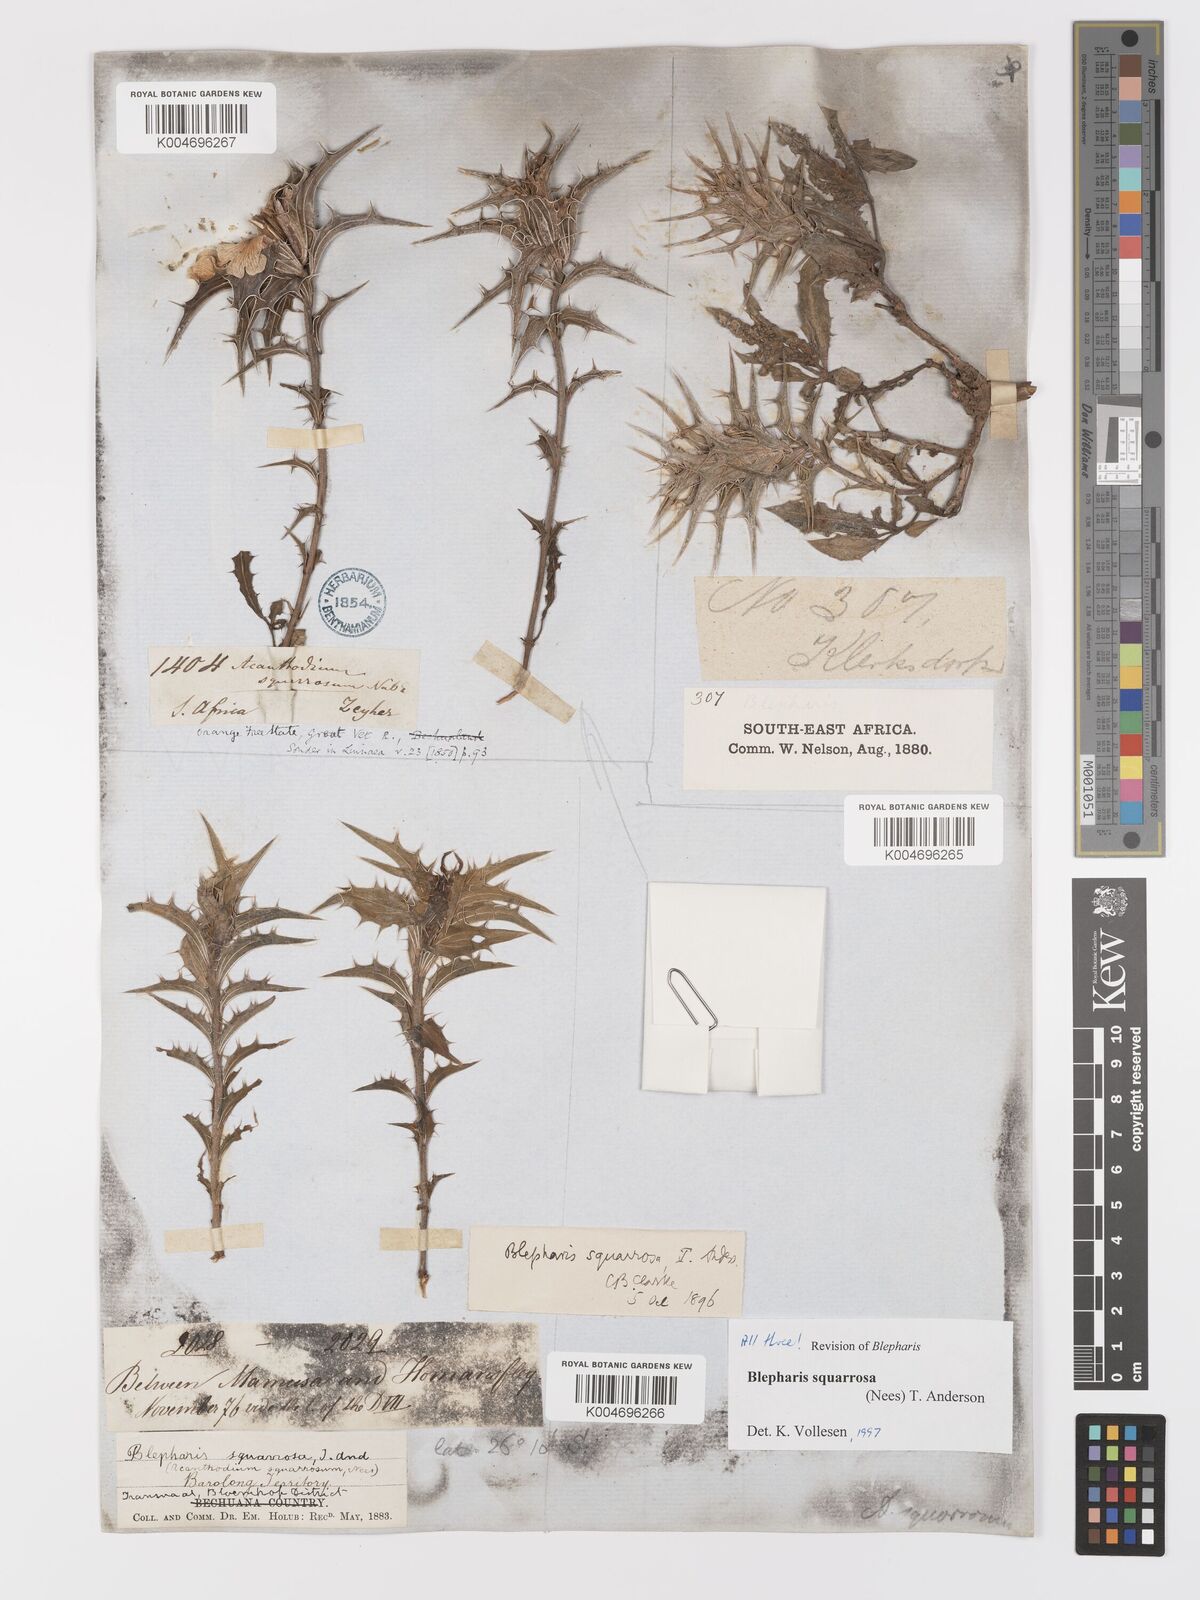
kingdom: Plantae
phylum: Tracheophyta
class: Magnoliopsida
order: Lamiales
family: Acanthaceae
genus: Blepharis
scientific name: Blepharis squarrosa
